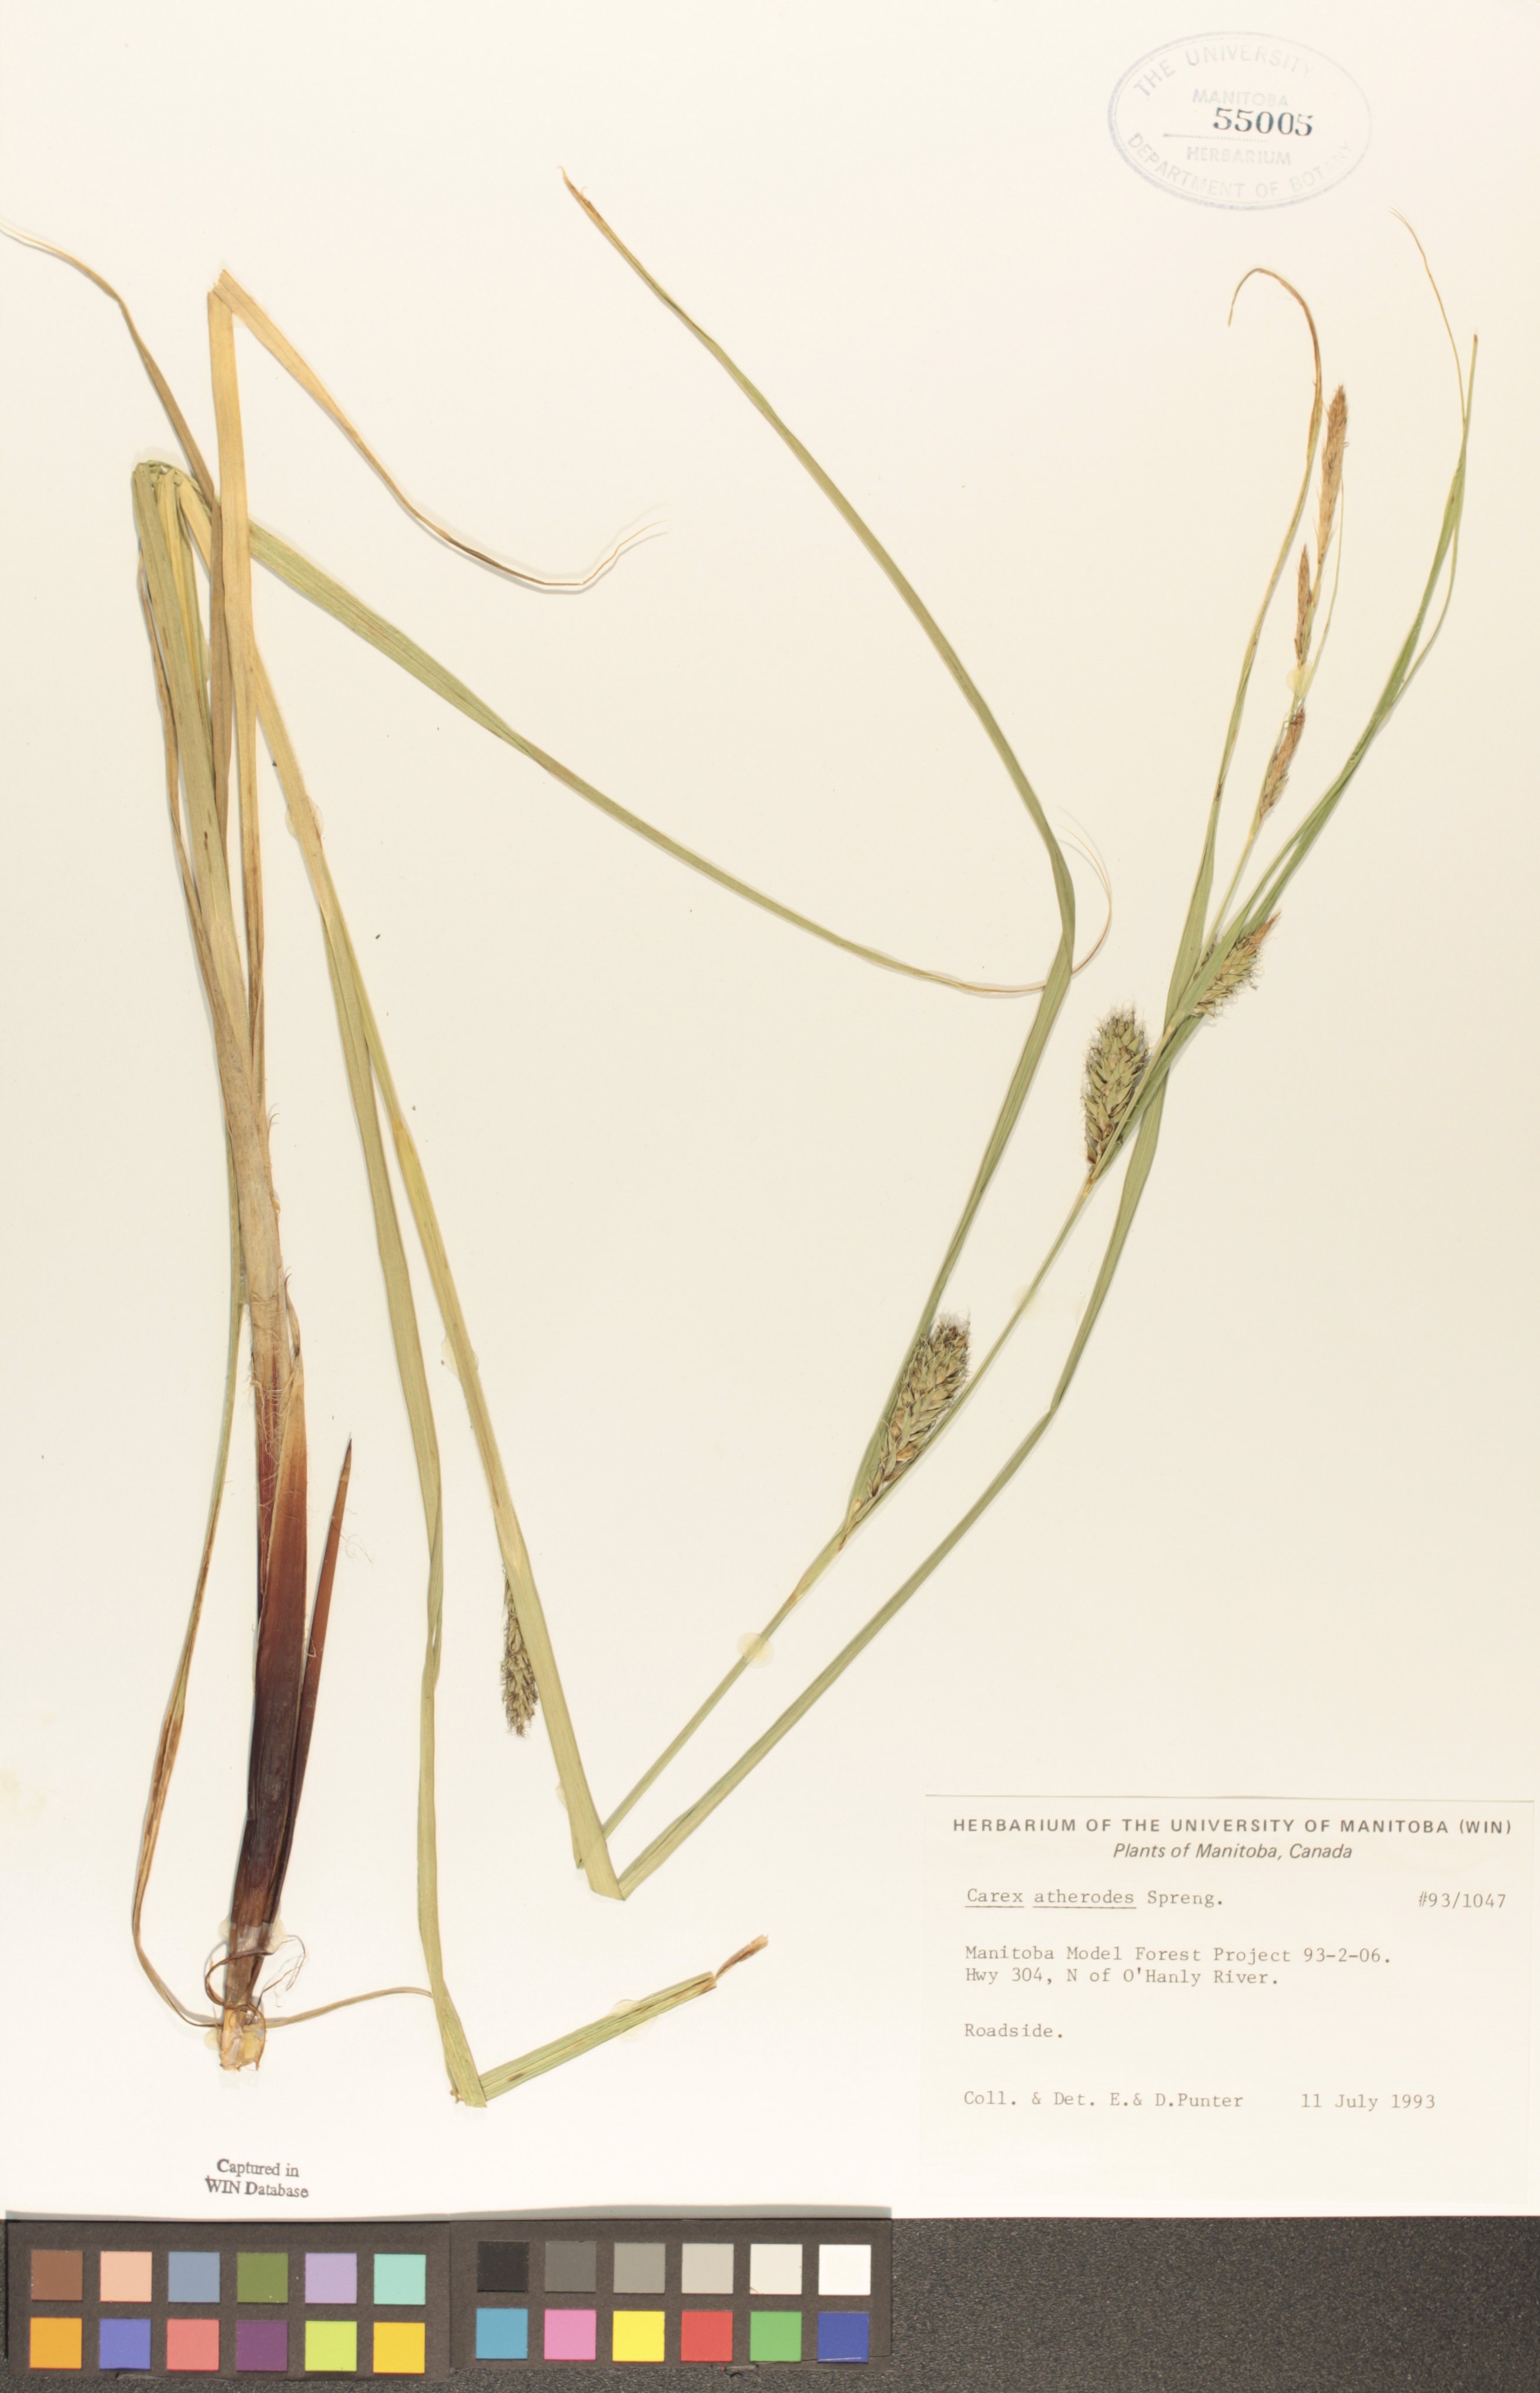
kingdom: Plantae
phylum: Tracheophyta
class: Liliopsida
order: Poales
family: Cyperaceae
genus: Carex
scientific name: Carex atherodes
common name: Wheat sedge
